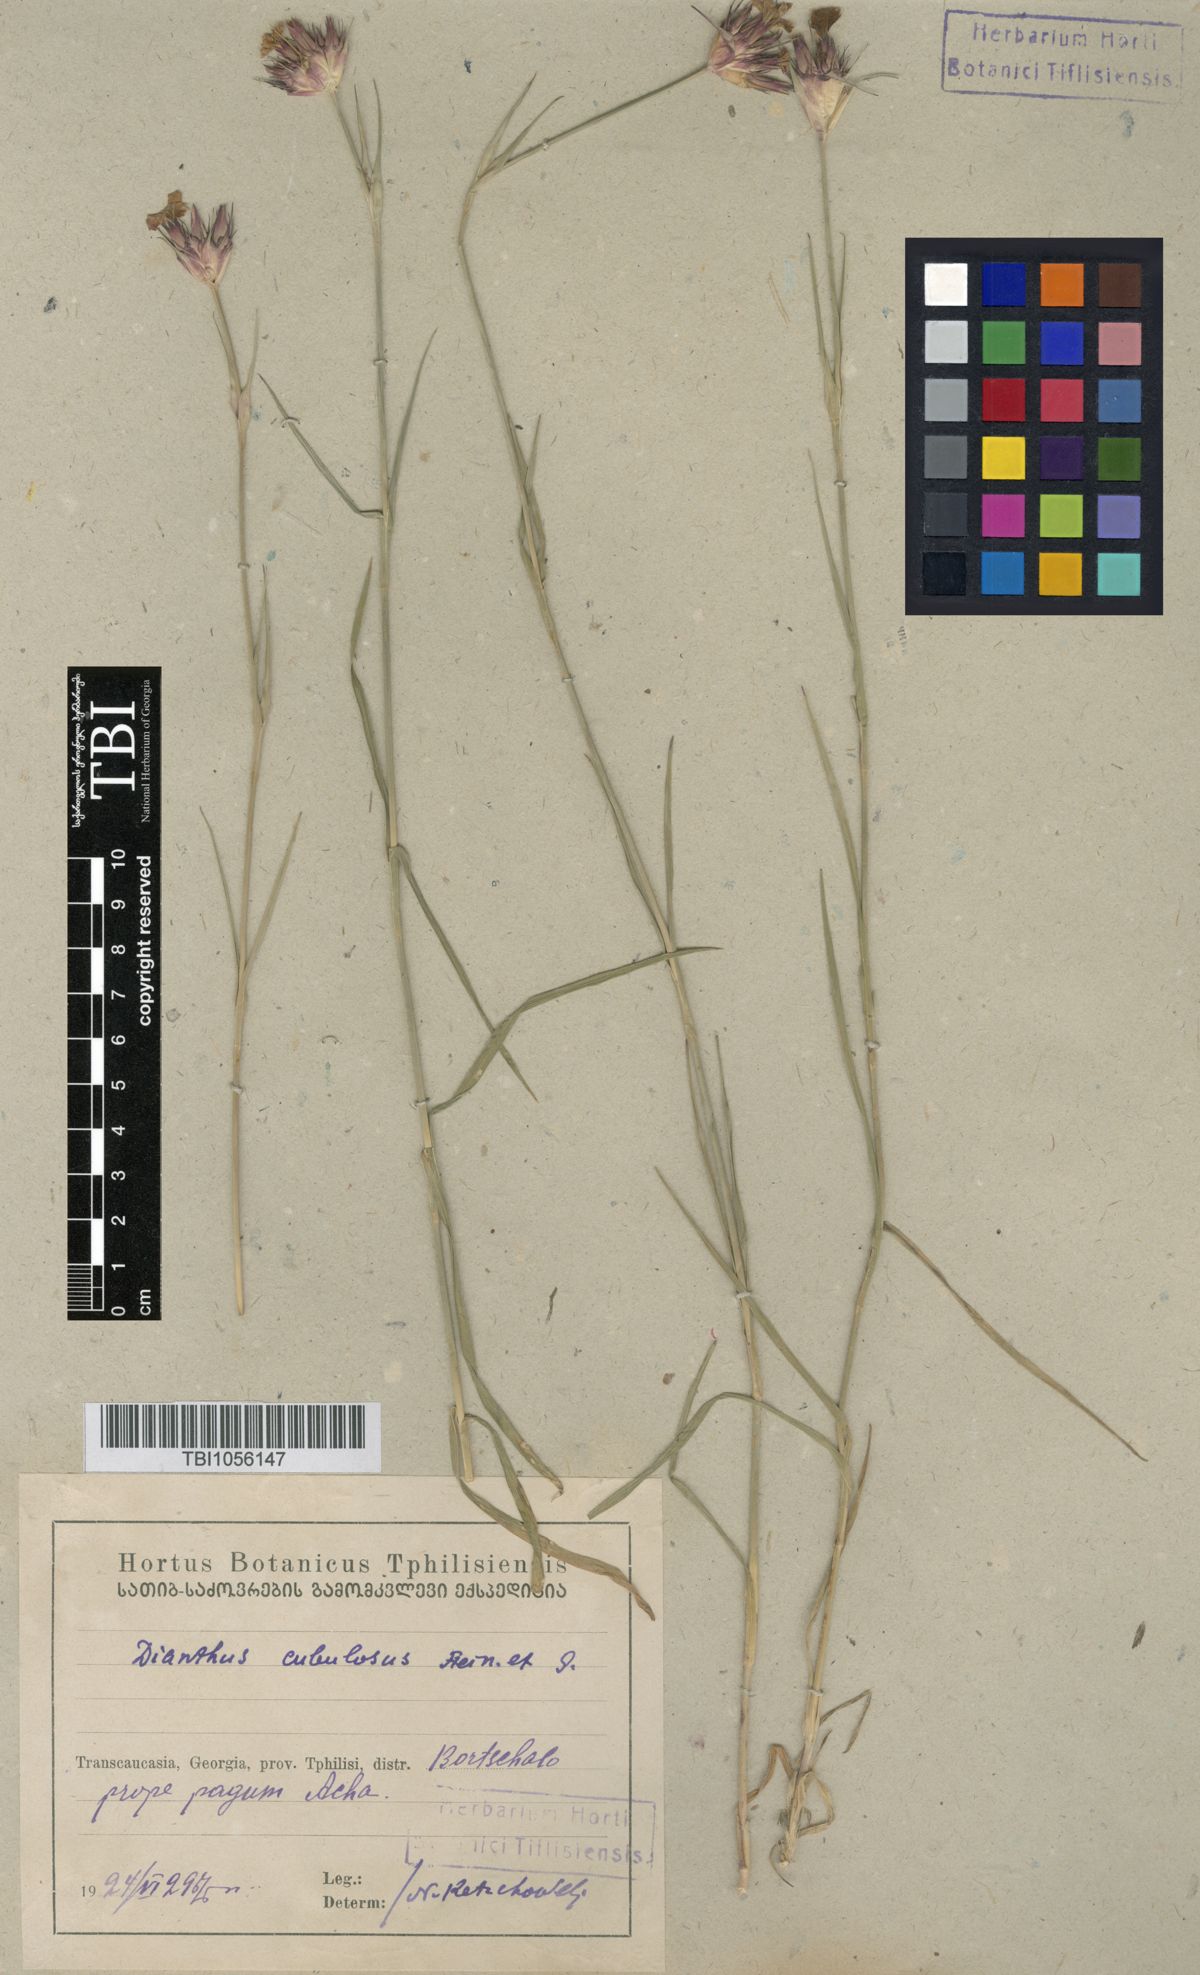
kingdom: Plantae
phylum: Tracheophyta
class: Magnoliopsida
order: Caryophyllales
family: Caryophyllaceae
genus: Dianthus
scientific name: Dianthus subulosus
